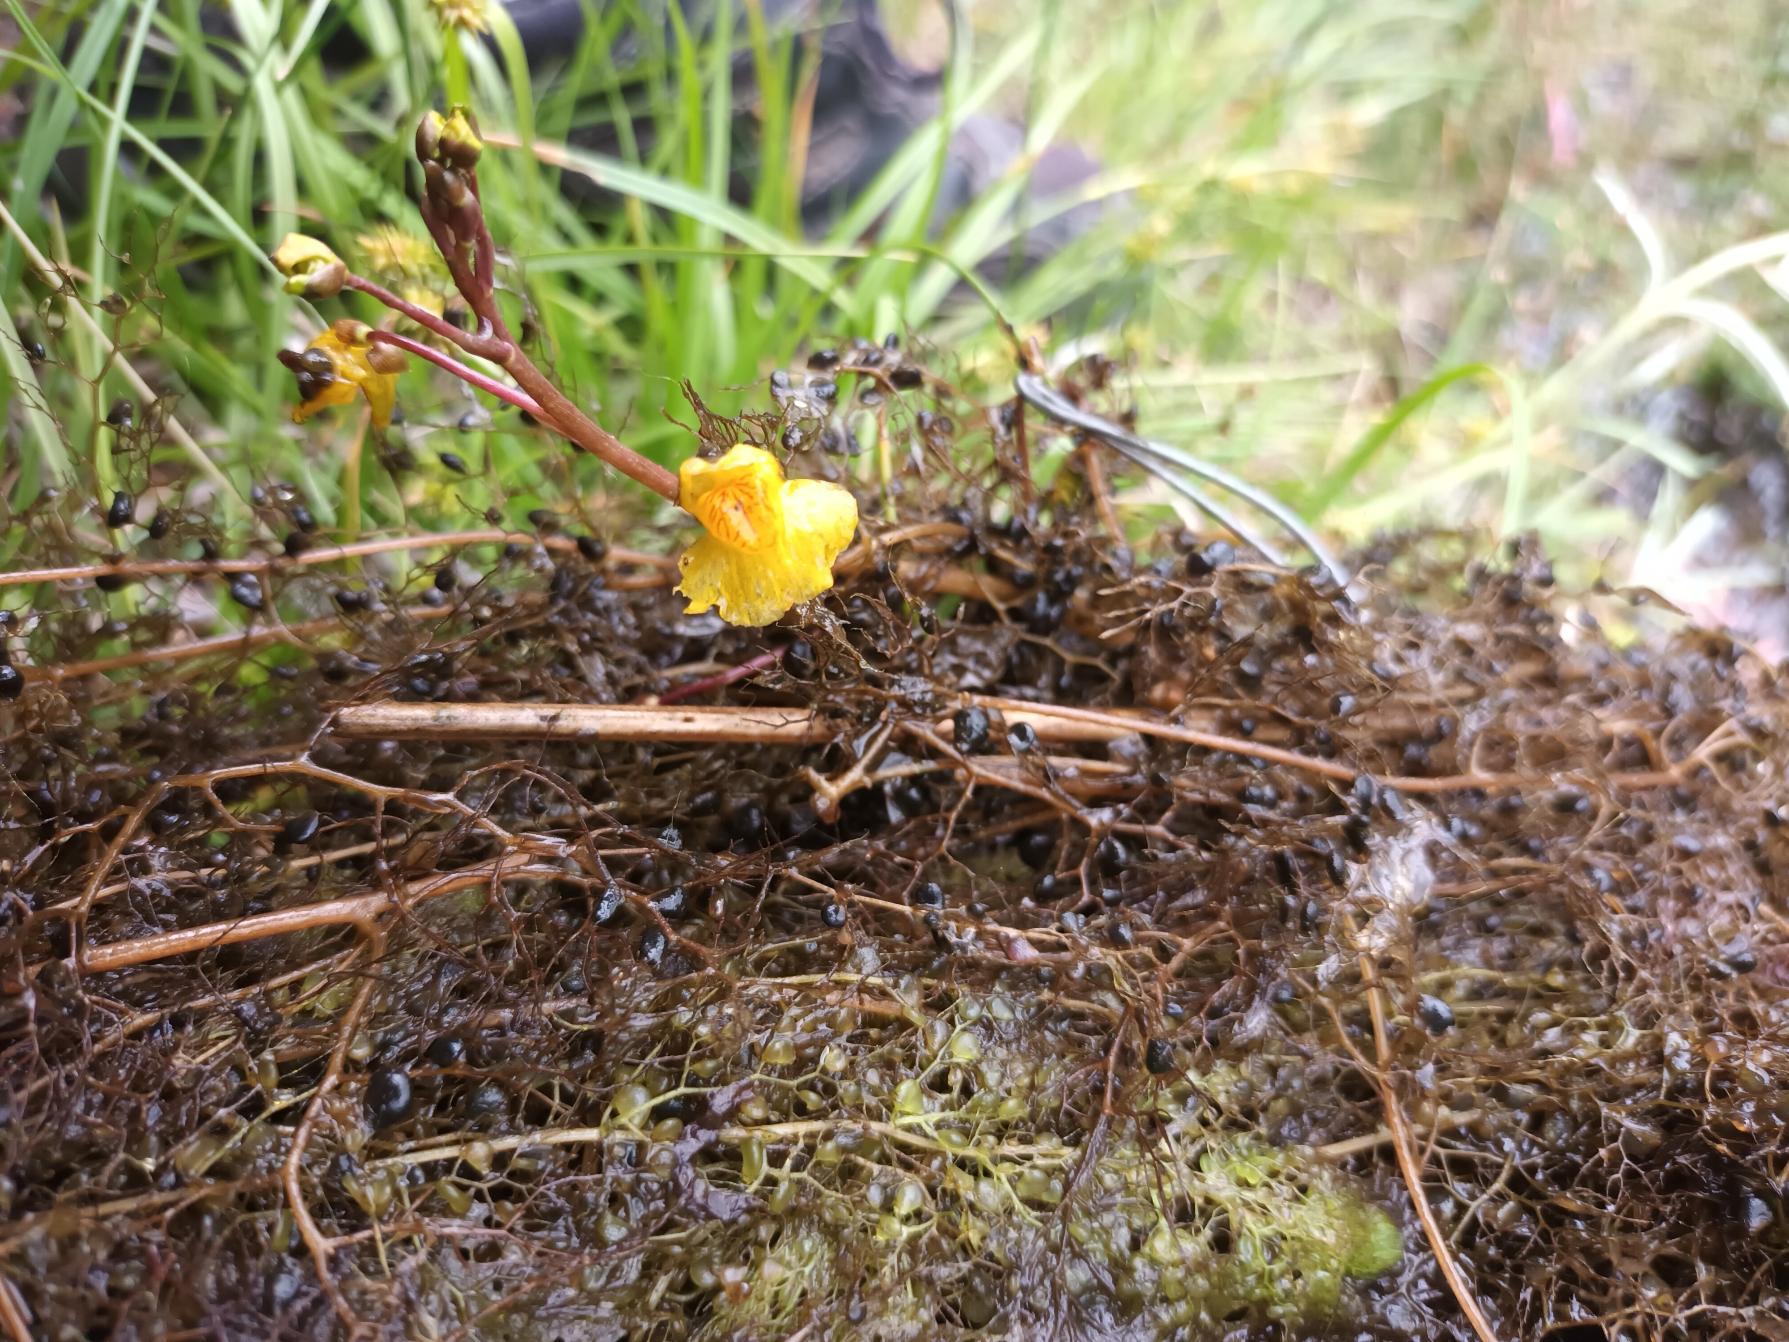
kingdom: Plantae
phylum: Tracheophyta
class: Magnoliopsida
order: Lamiales
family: Lentibulariaceae
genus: Utricularia
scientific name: Utricularia australis
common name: Slank blærerod
